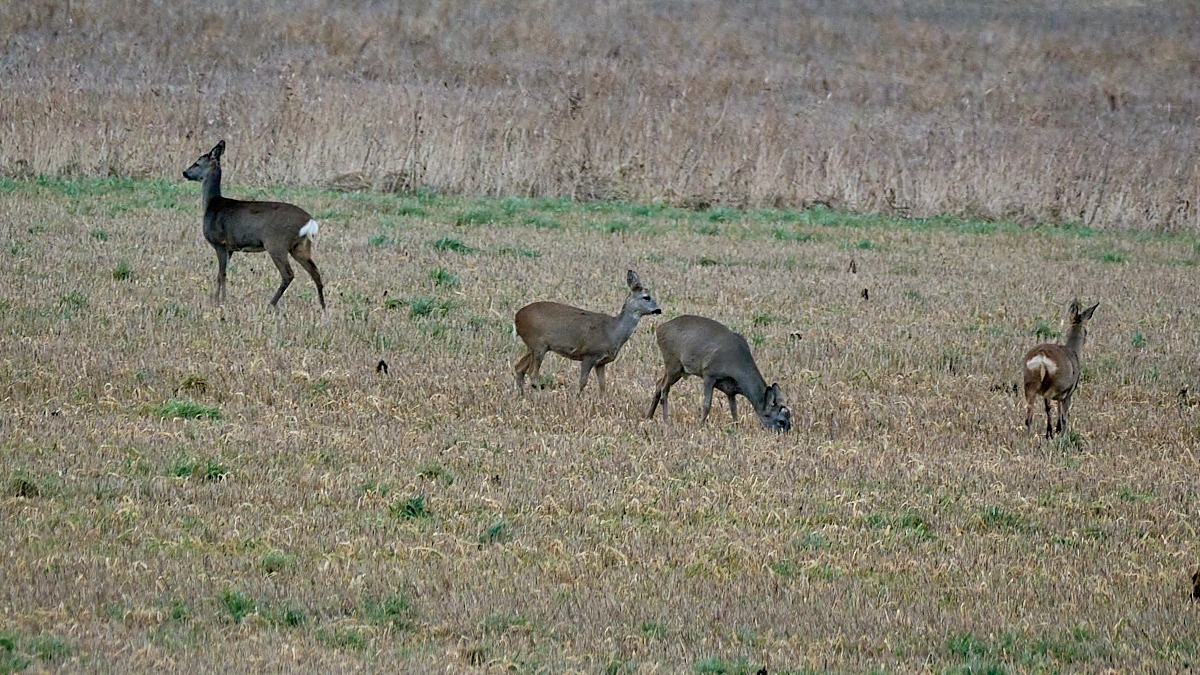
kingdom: Animalia
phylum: Chordata
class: Mammalia
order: Artiodactyla
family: Cervidae
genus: Capreolus
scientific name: Capreolus capreolus
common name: Rådyr
